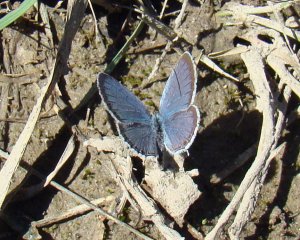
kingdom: Animalia
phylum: Arthropoda
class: Insecta
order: Lepidoptera
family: Lycaenidae
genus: Elkalyce
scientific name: Elkalyce comyntas
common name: Eastern Tailed-Blue
